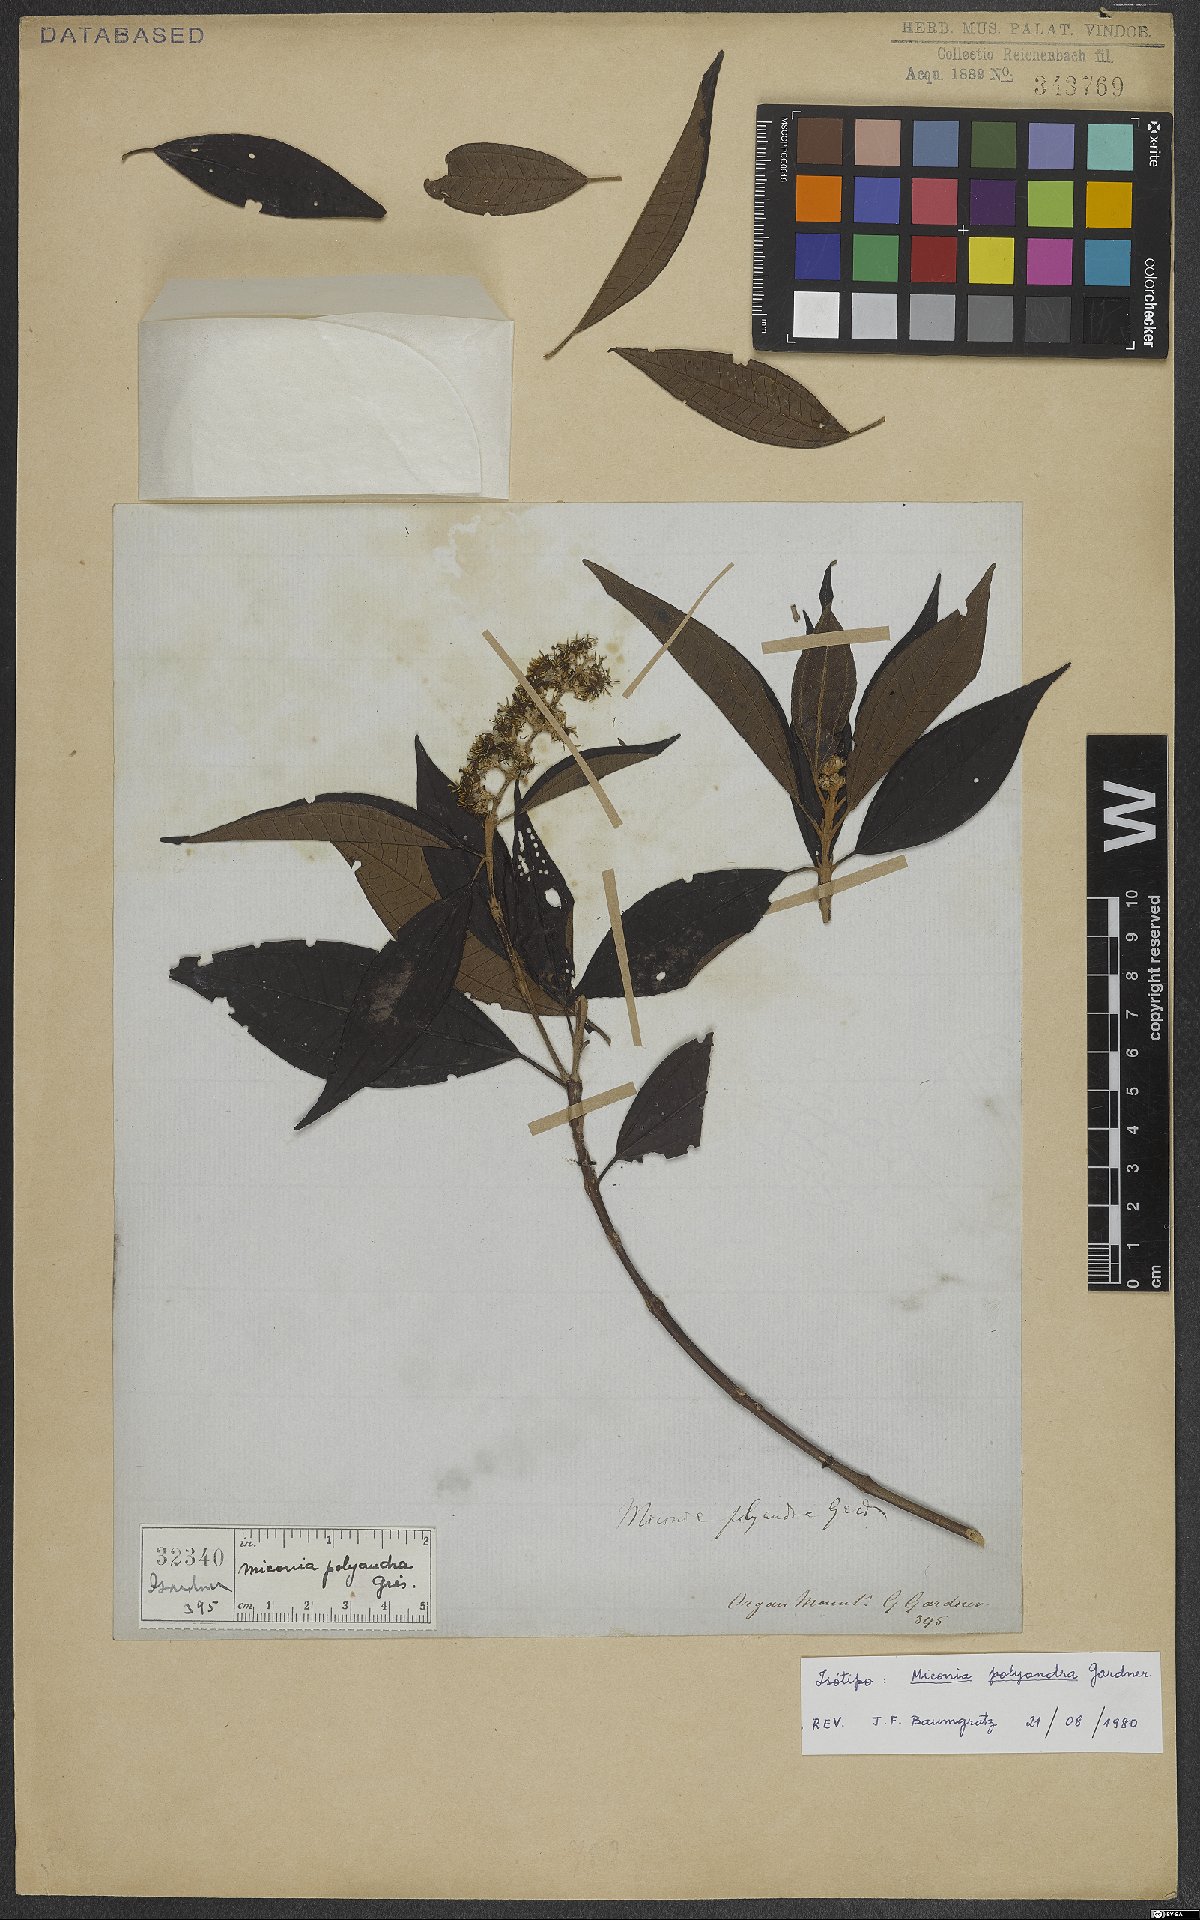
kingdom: Plantae
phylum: Tracheophyta
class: Magnoliopsida
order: Myrtales
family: Melastomataceae
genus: Miconia
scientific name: Miconia polyandra
